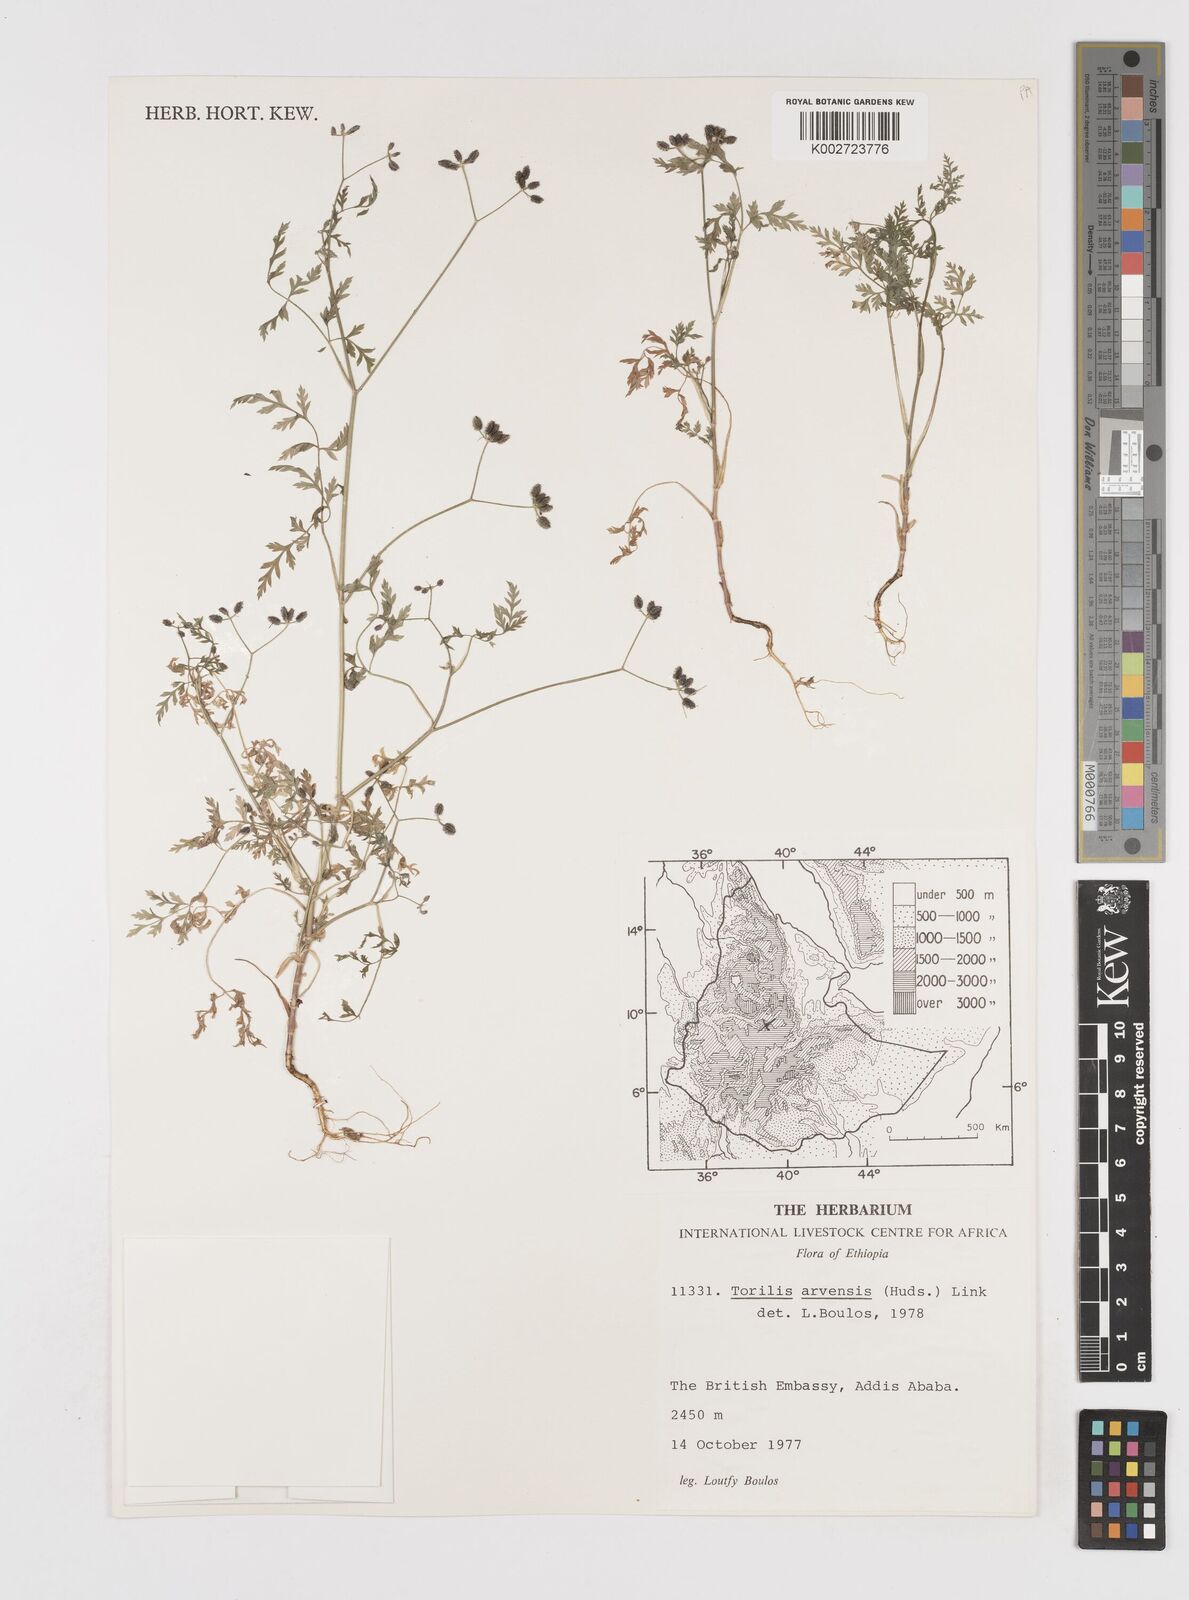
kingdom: Plantae
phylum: Tracheophyta
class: Magnoliopsida
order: Apiales
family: Apiaceae
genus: Torilis
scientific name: Torilis arvensis
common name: Spreading hedge-parsley
